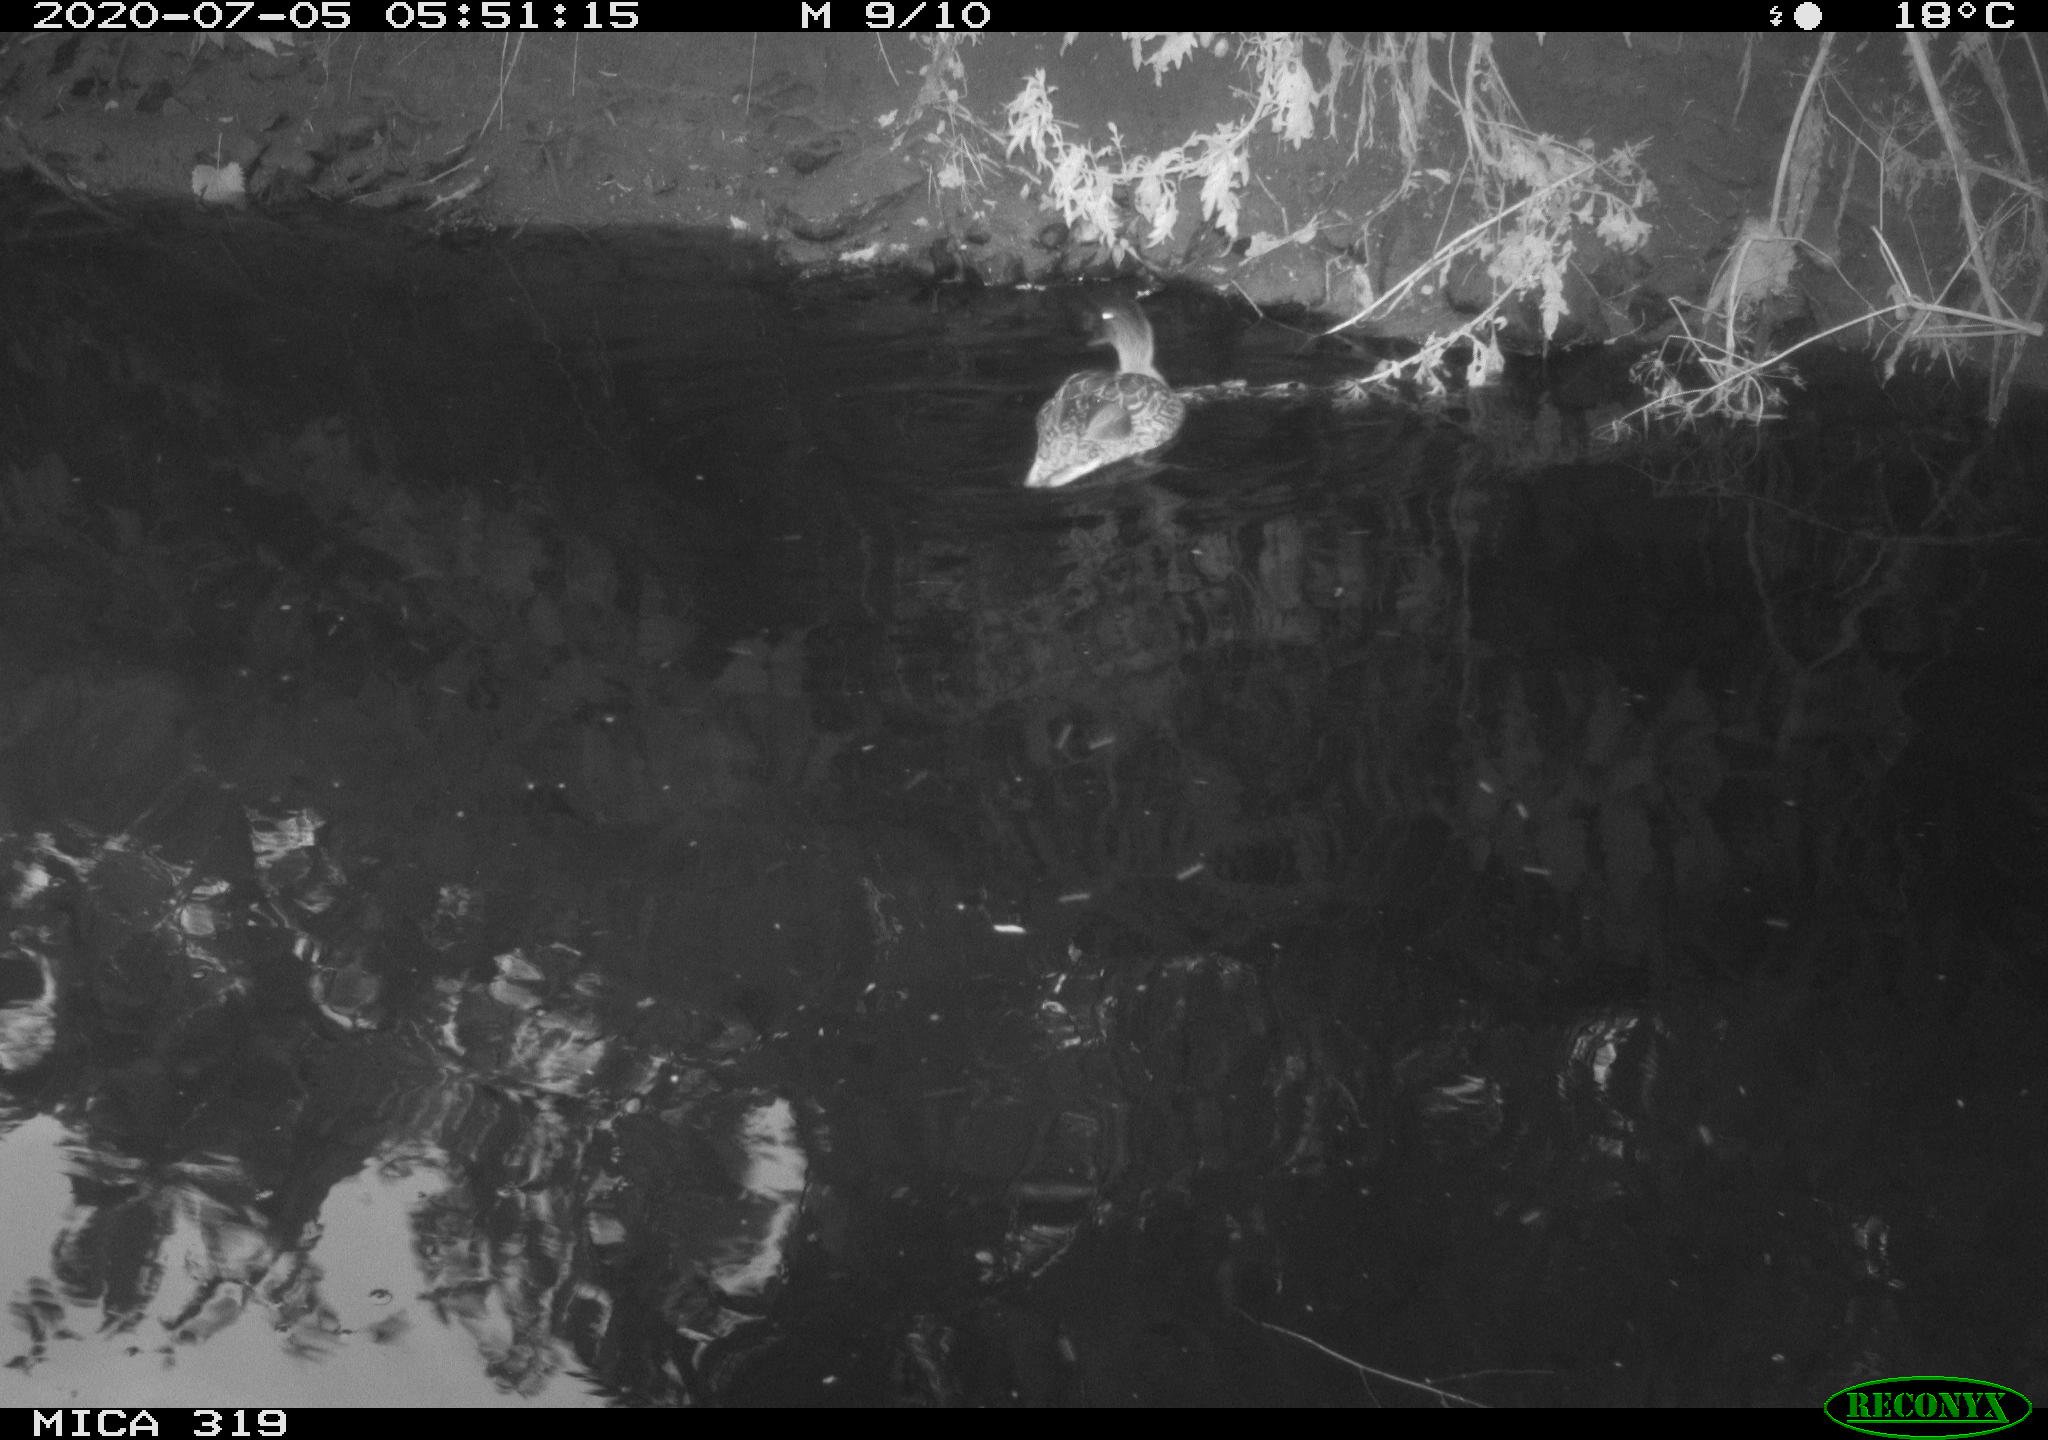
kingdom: Animalia
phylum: Chordata
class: Aves
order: Anseriformes
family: Anatidae
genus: Anas
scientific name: Anas platyrhynchos
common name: Mallard
